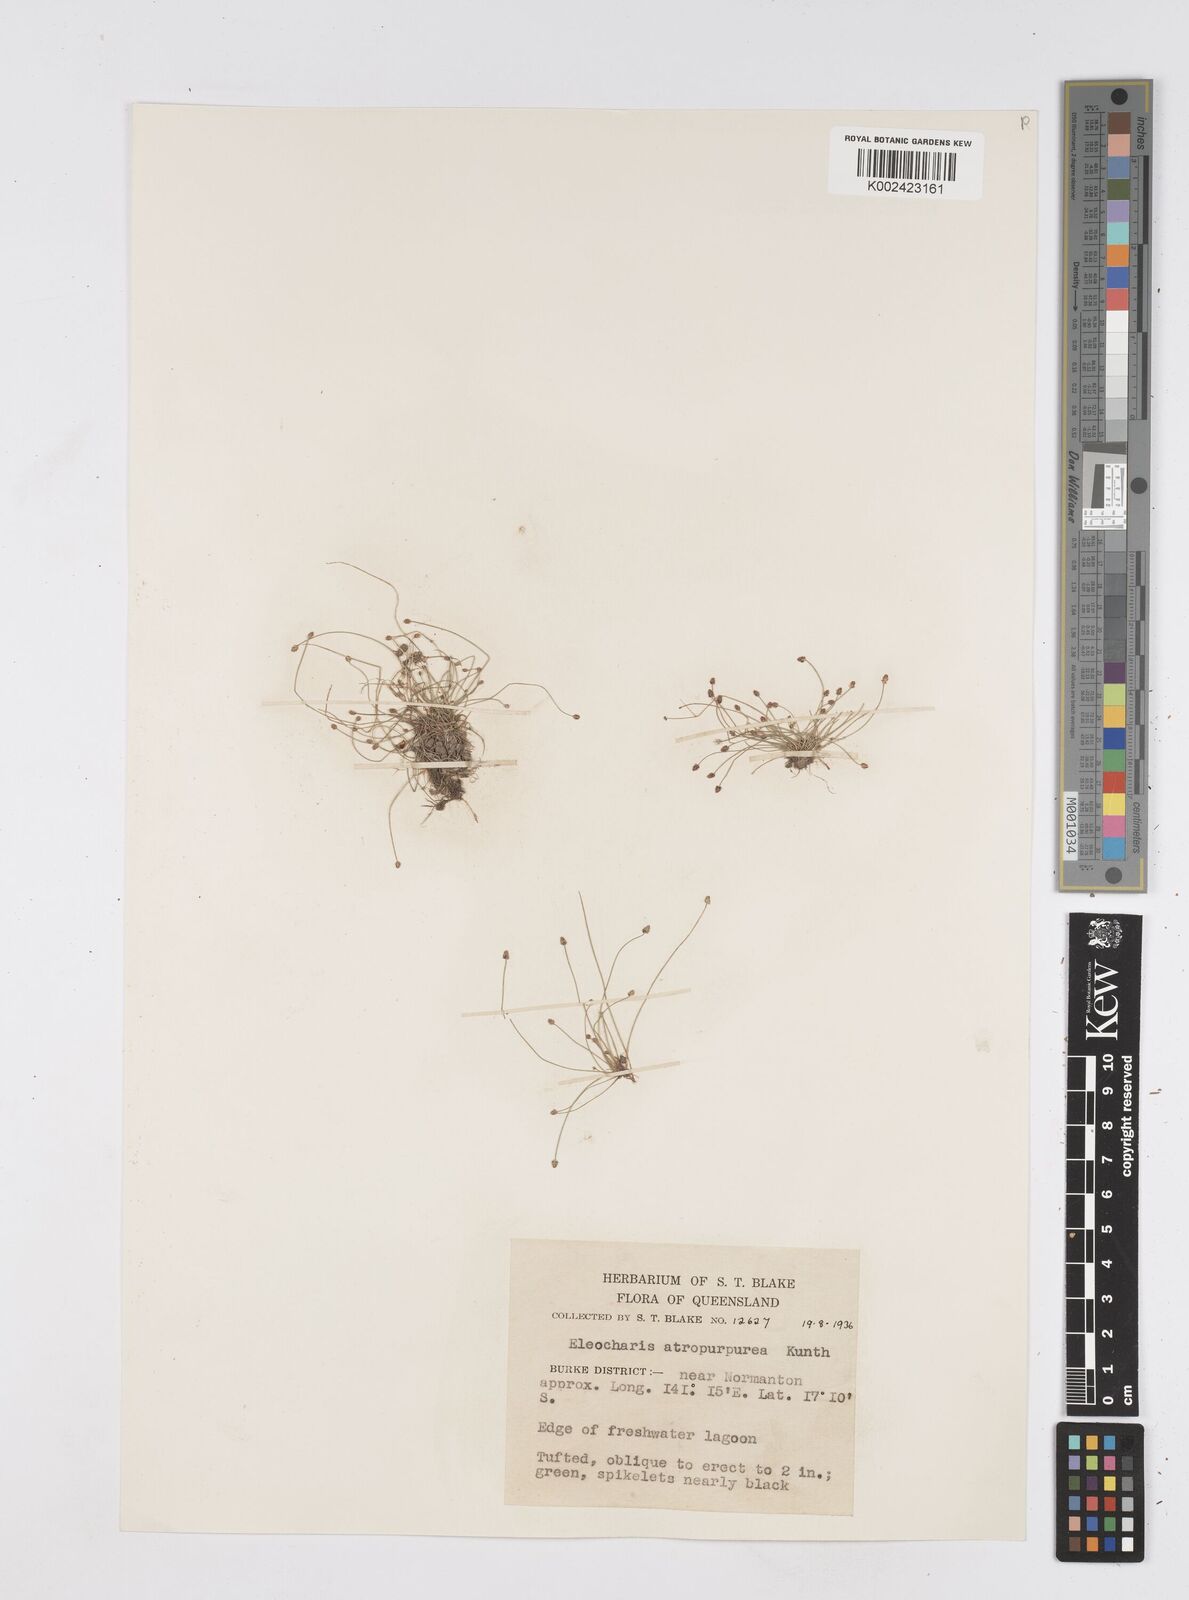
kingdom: Plantae
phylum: Tracheophyta
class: Liliopsida
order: Poales
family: Cyperaceae
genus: Eleocharis
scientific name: Eleocharis atropurpurea
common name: Purple spikerush
